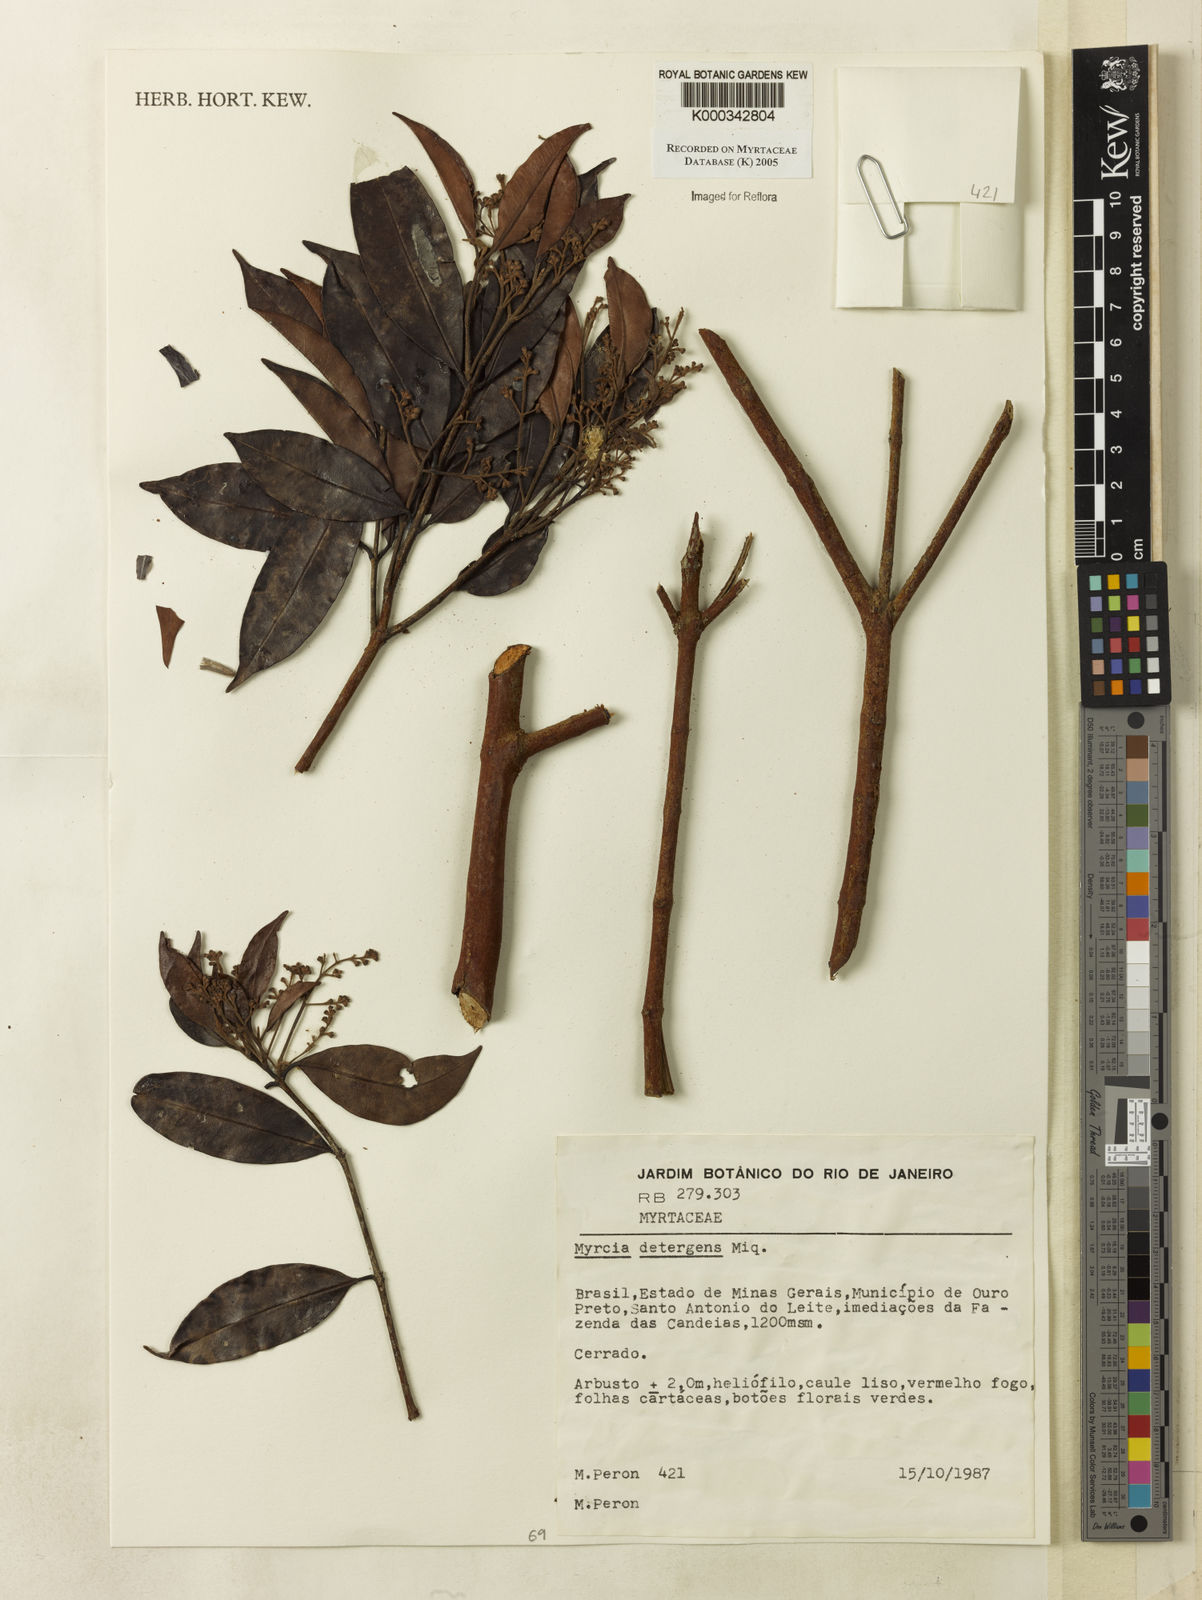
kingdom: Plantae
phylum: Tracheophyta
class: Magnoliopsida
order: Myrtales
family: Myrtaceae
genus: Myrcia
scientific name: Myrcia amazonica
